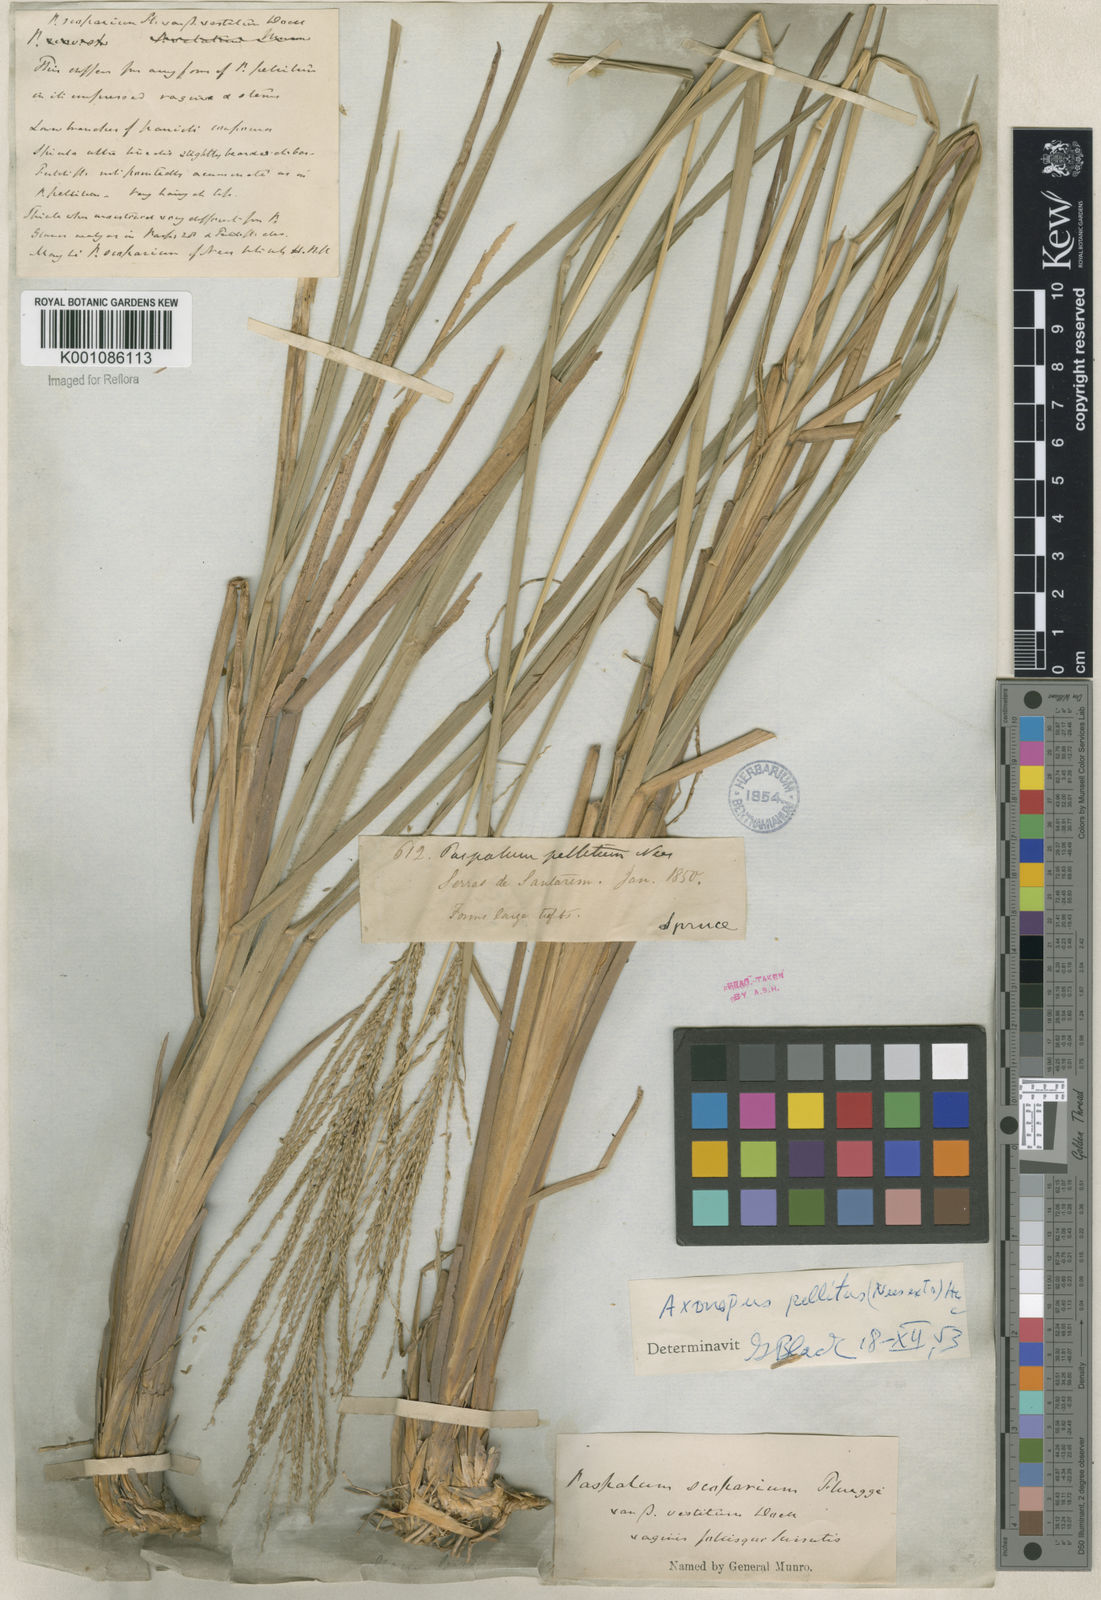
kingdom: Plantae
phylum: Tracheophyta
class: Liliopsida
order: Poales
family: Poaceae
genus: Axonopus
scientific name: Axonopus siccus
